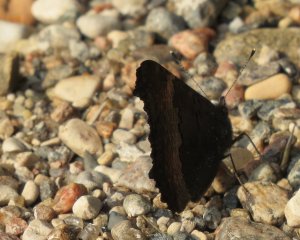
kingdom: Animalia
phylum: Arthropoda
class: Insecta
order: Lepidoptera
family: Nymphalidae
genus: Aglais
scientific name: Aglais milberti
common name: Milbert's Tortoiseshell
